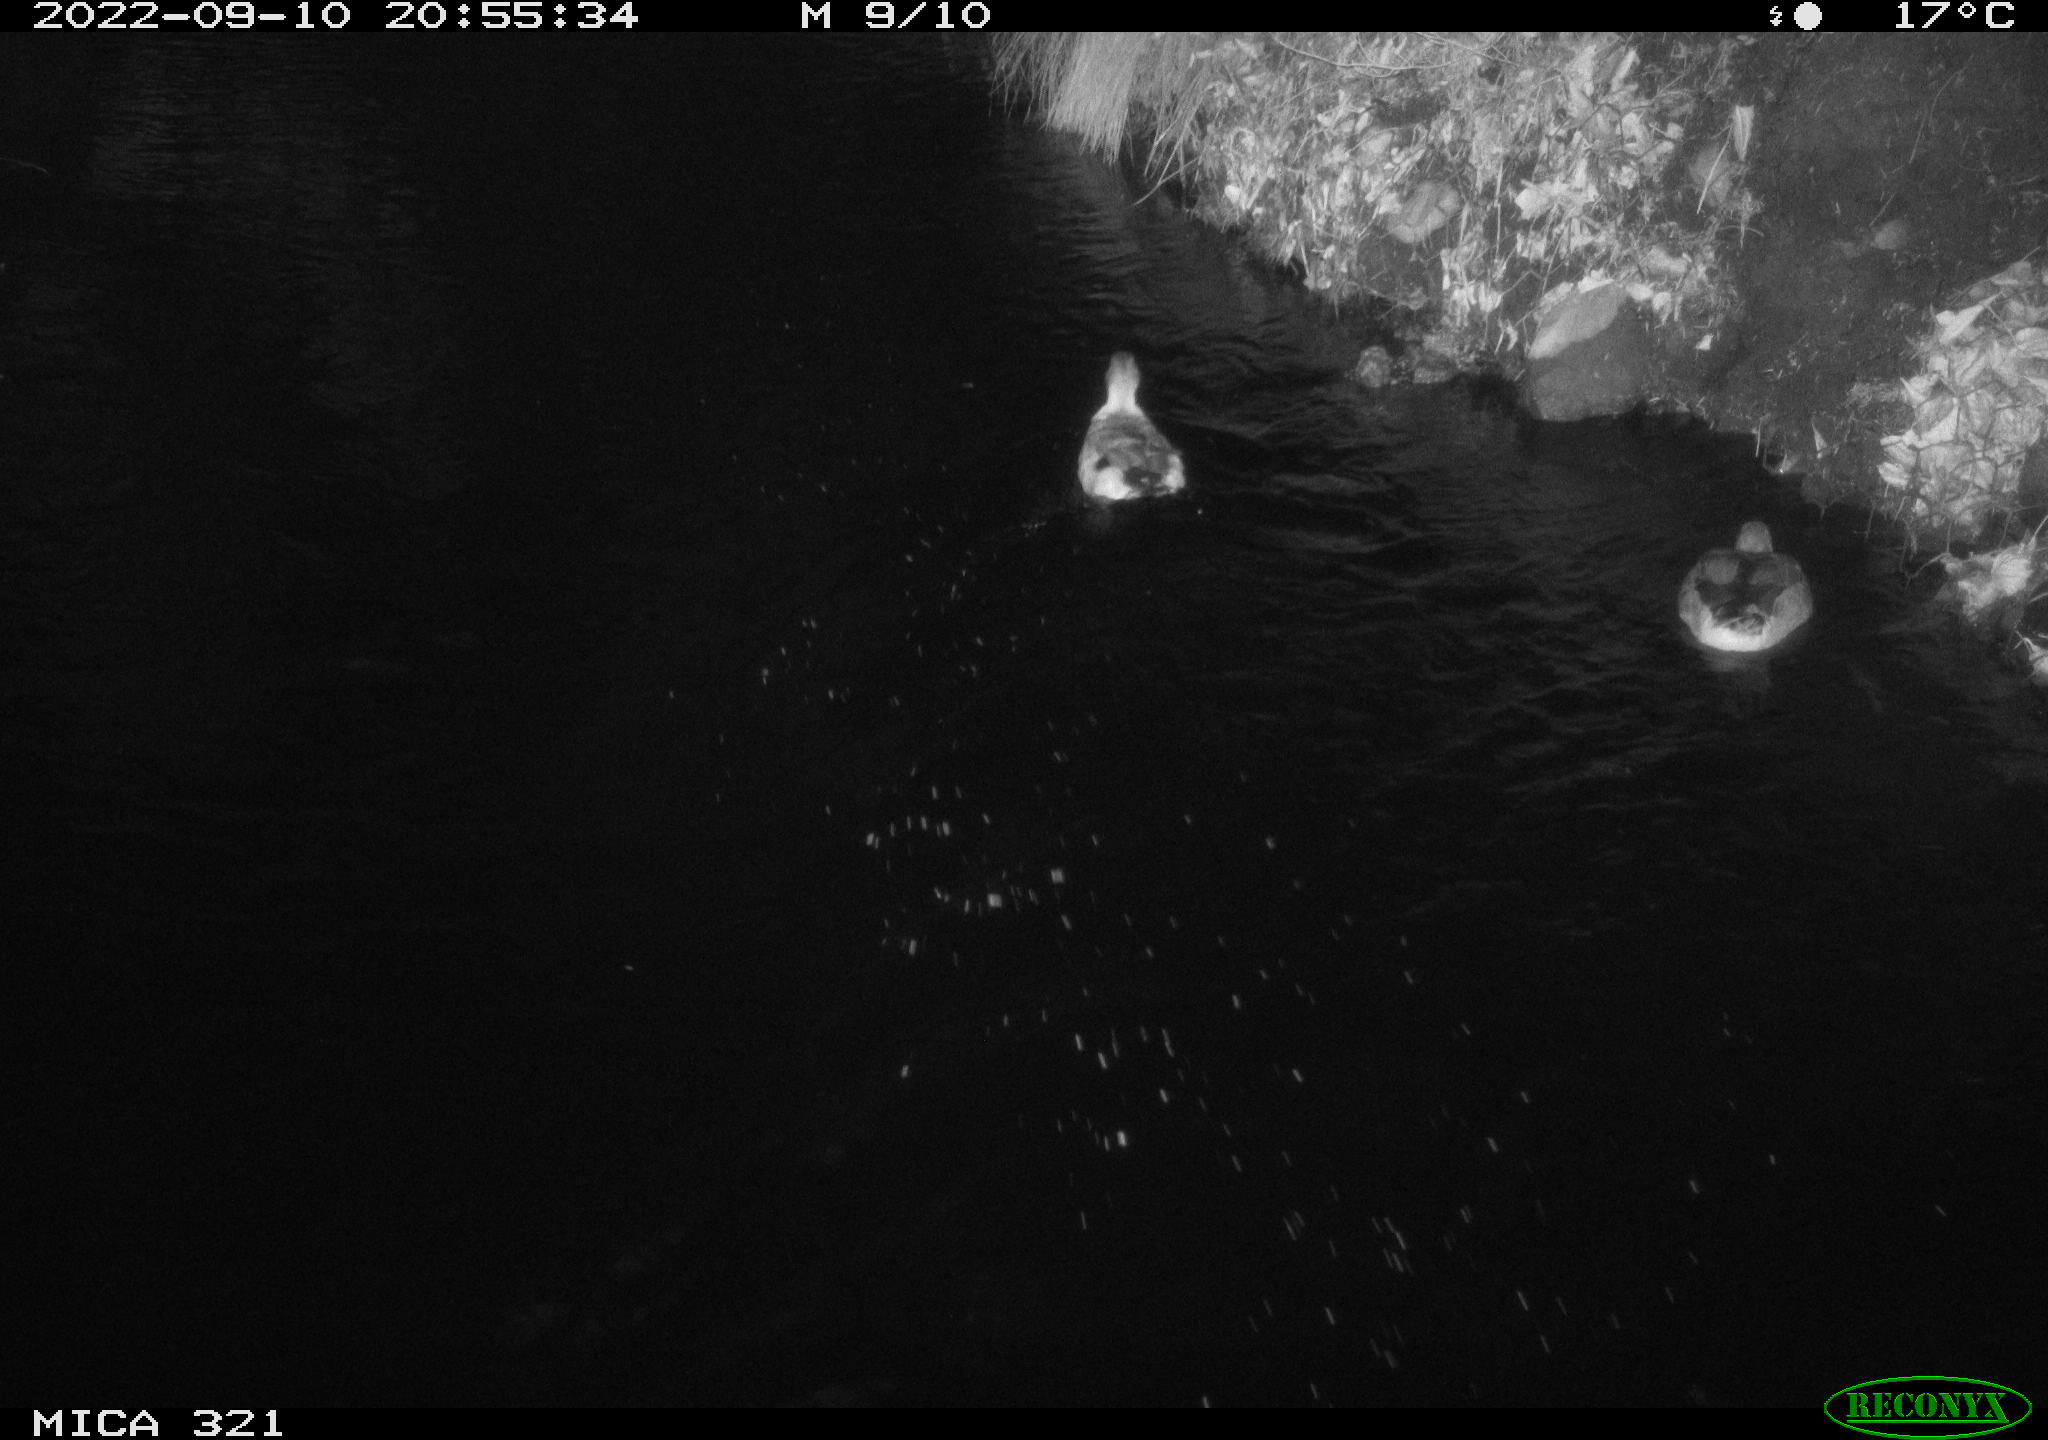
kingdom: Animalia
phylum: Chordata
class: Aves
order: Anseriformes
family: Anatidae
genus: Anas
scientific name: Anas
